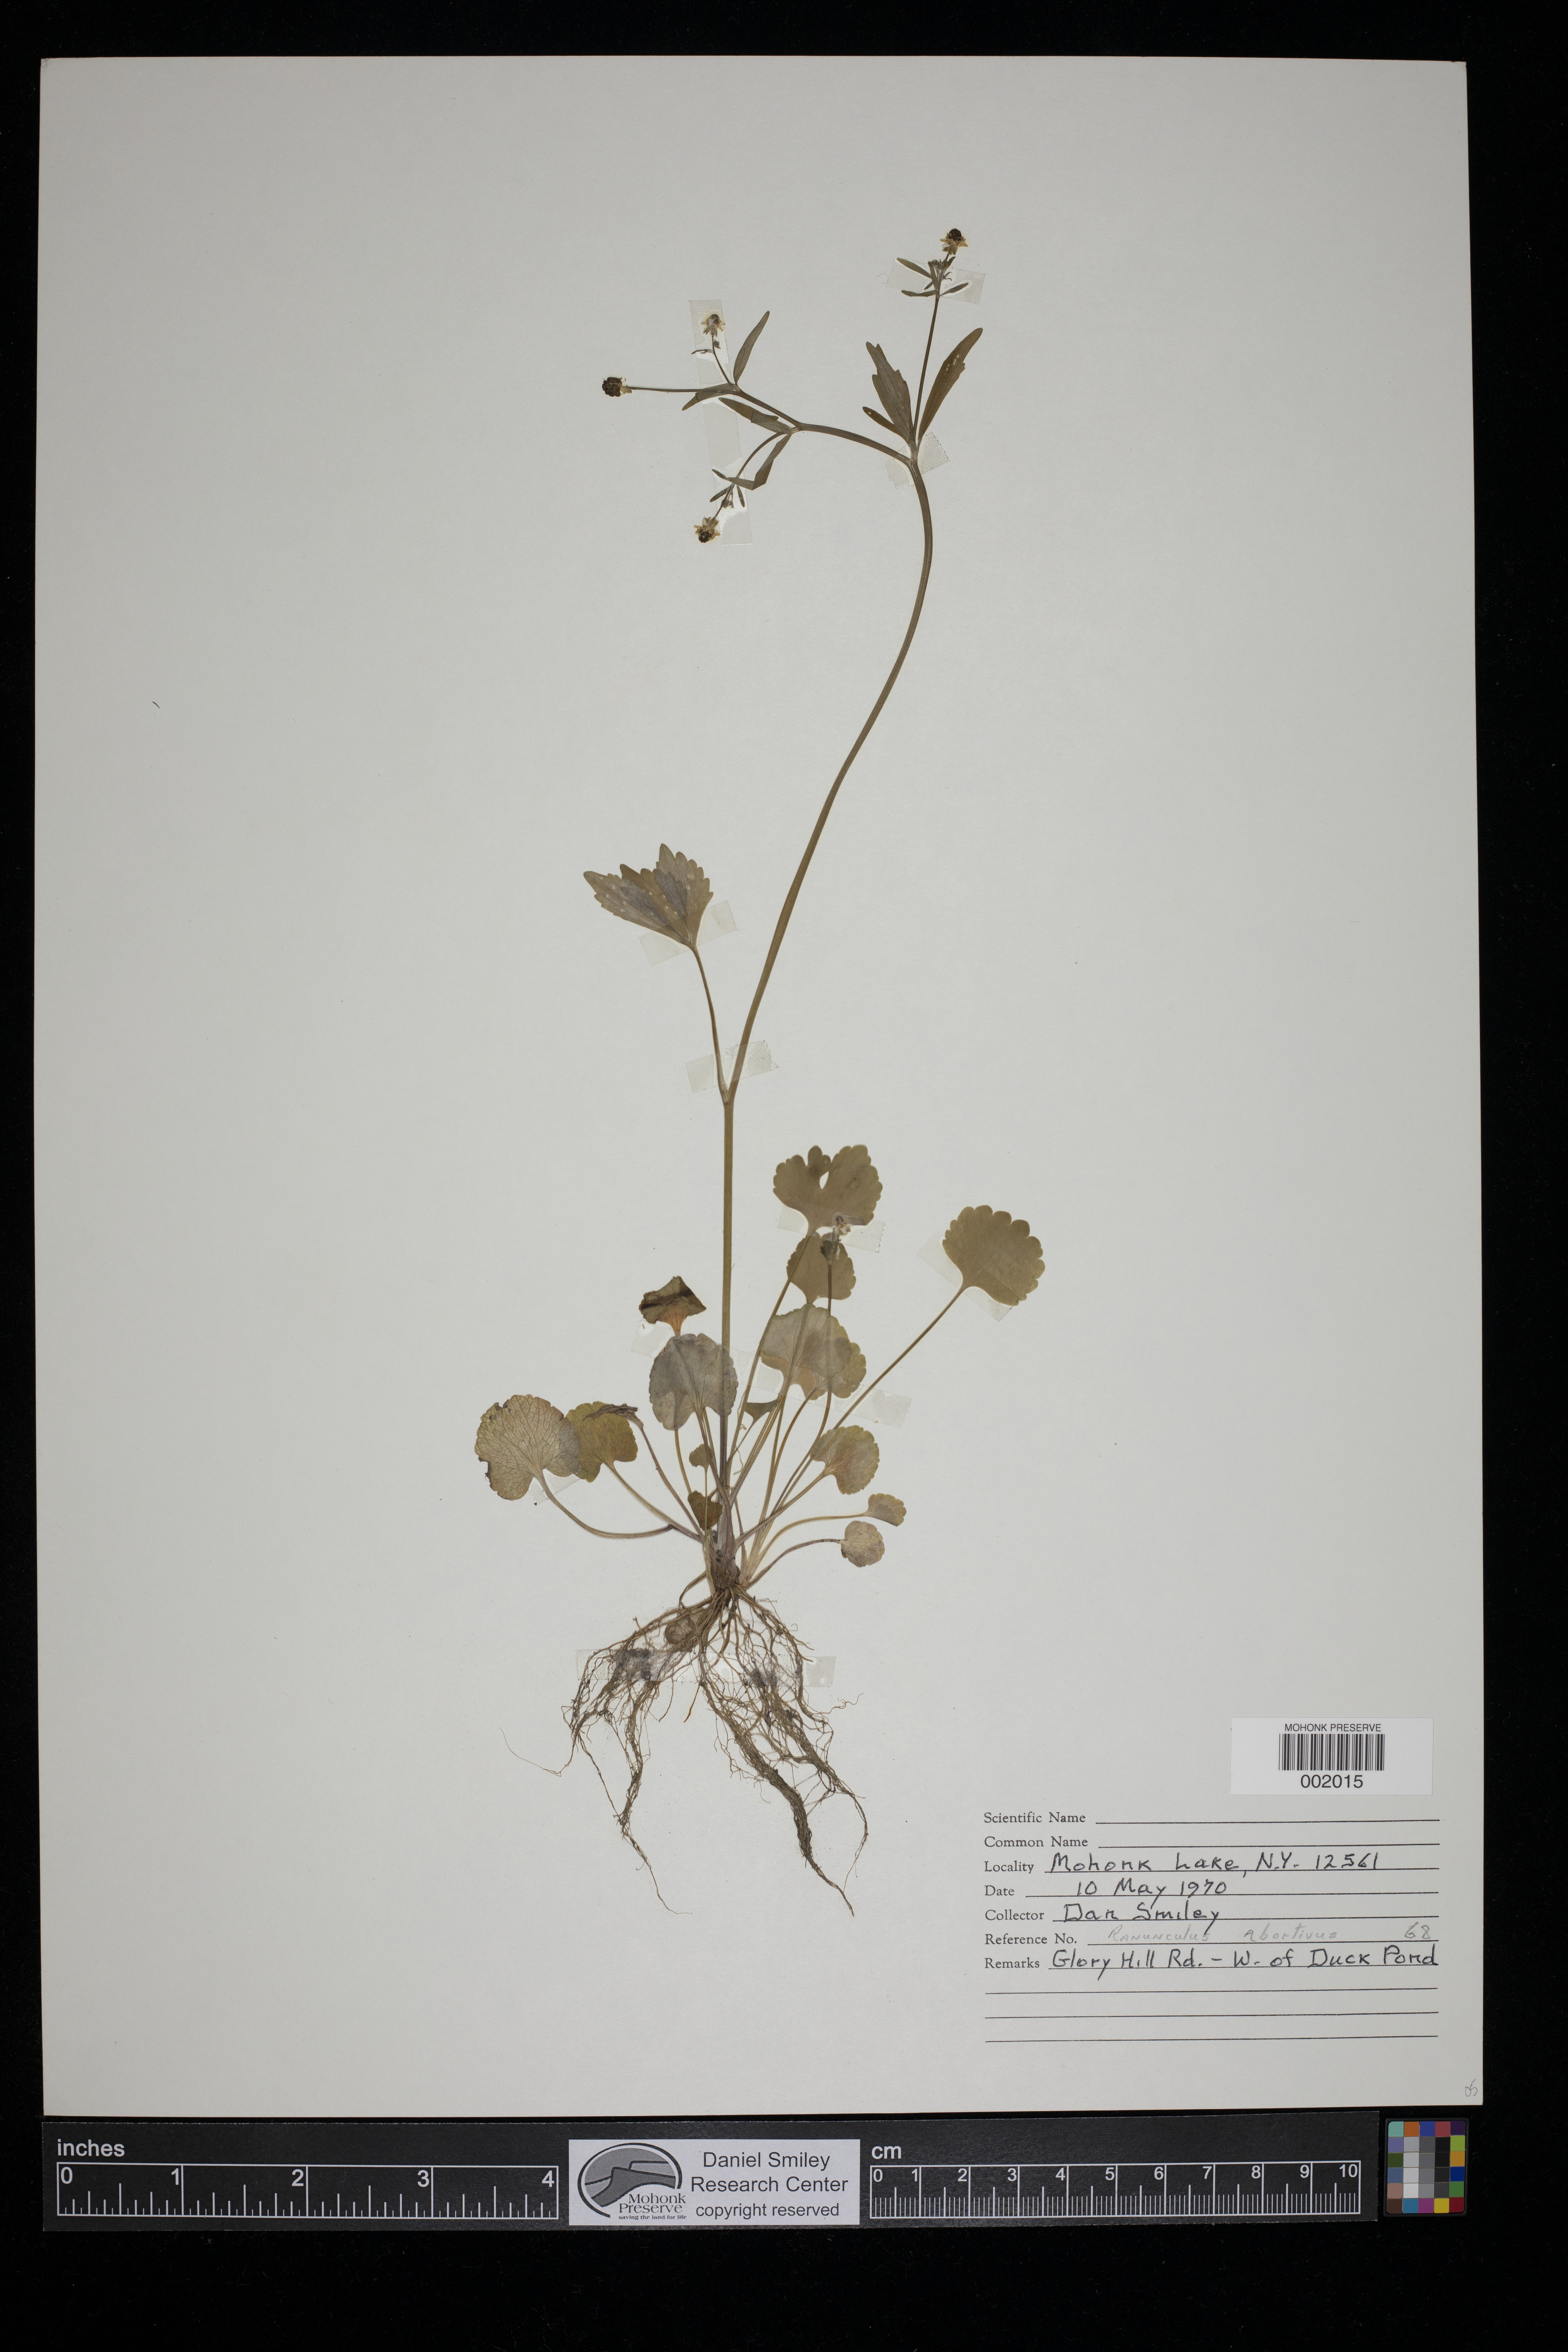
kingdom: Plantae
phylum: Tracheophyta
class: Magnoliopsida
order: Ranunculales
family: Ranunculaceae
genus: Ranunculus
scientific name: Ranunculus
